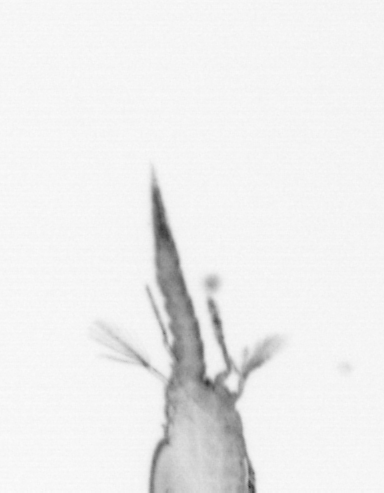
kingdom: Animalia
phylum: Annelida
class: Polychaeta
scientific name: Polychaeta
